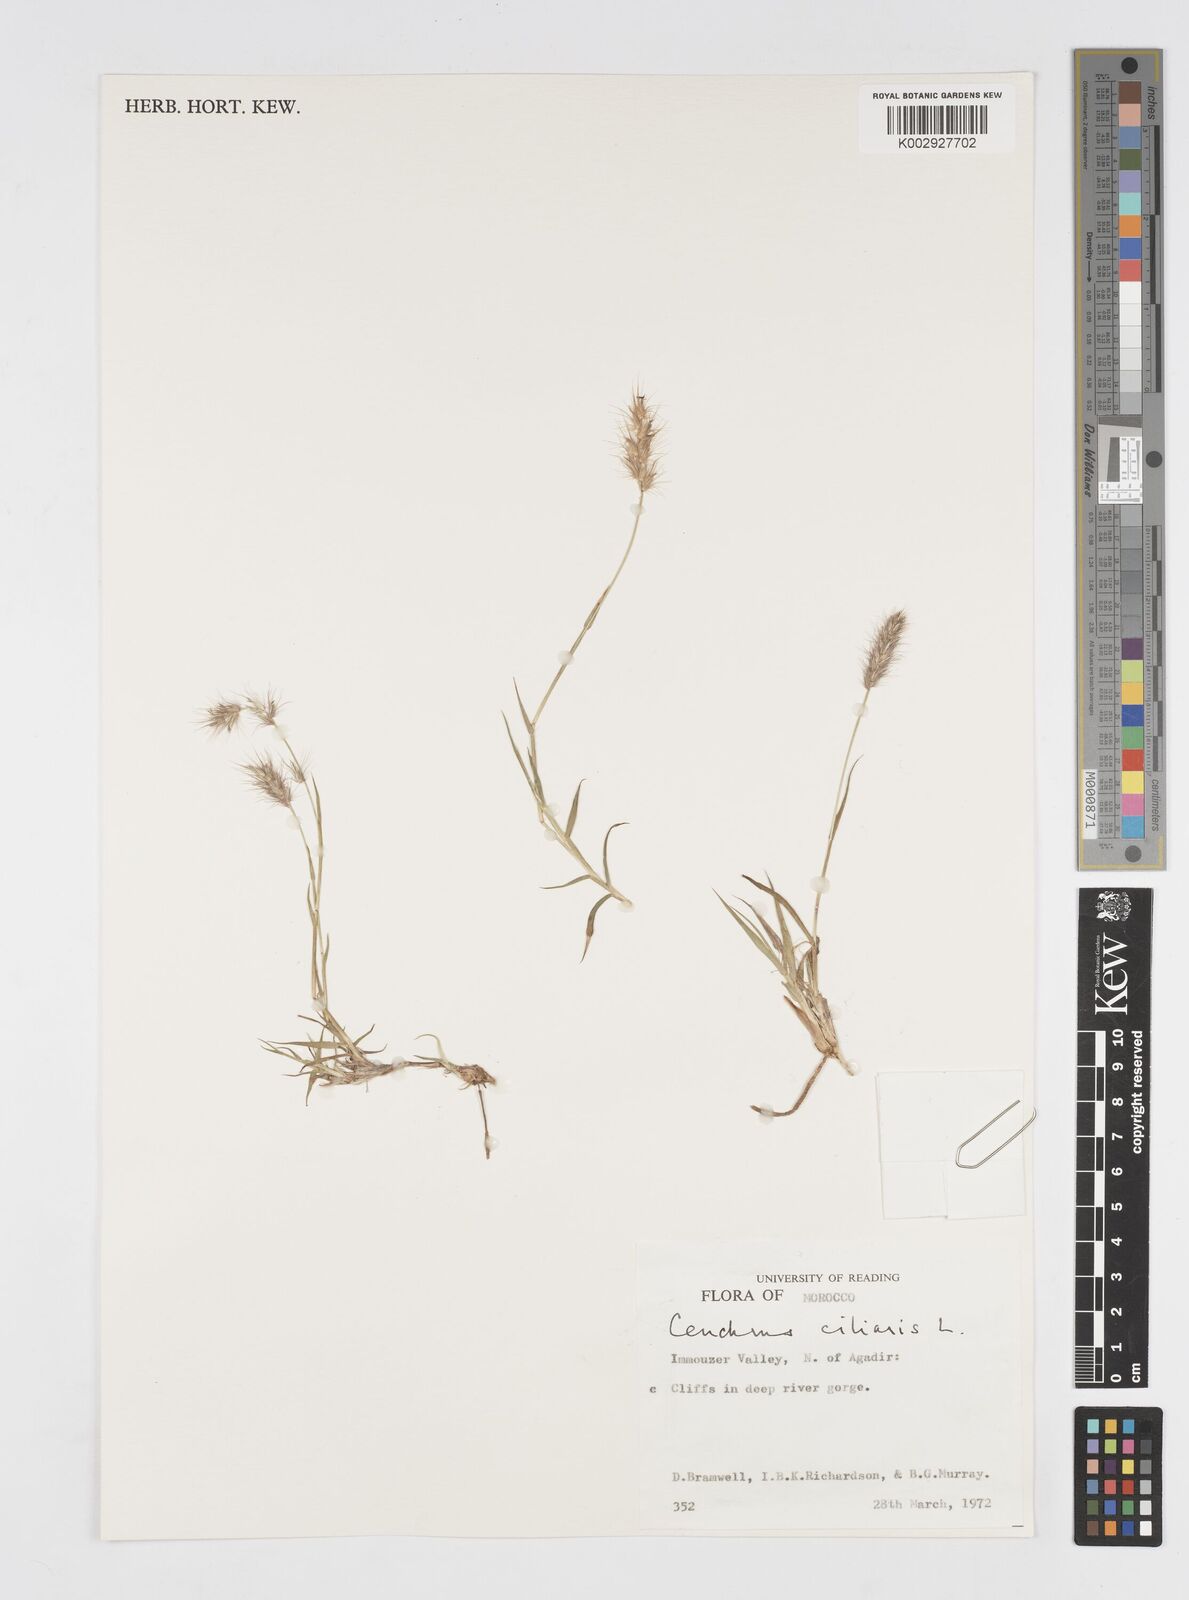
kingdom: Plantae
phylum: Tracheophyta
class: Liliopsida
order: Poales
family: Poaceae
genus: Cenchrus
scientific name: Cenchrus ciliaris
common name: Buffelgrass
